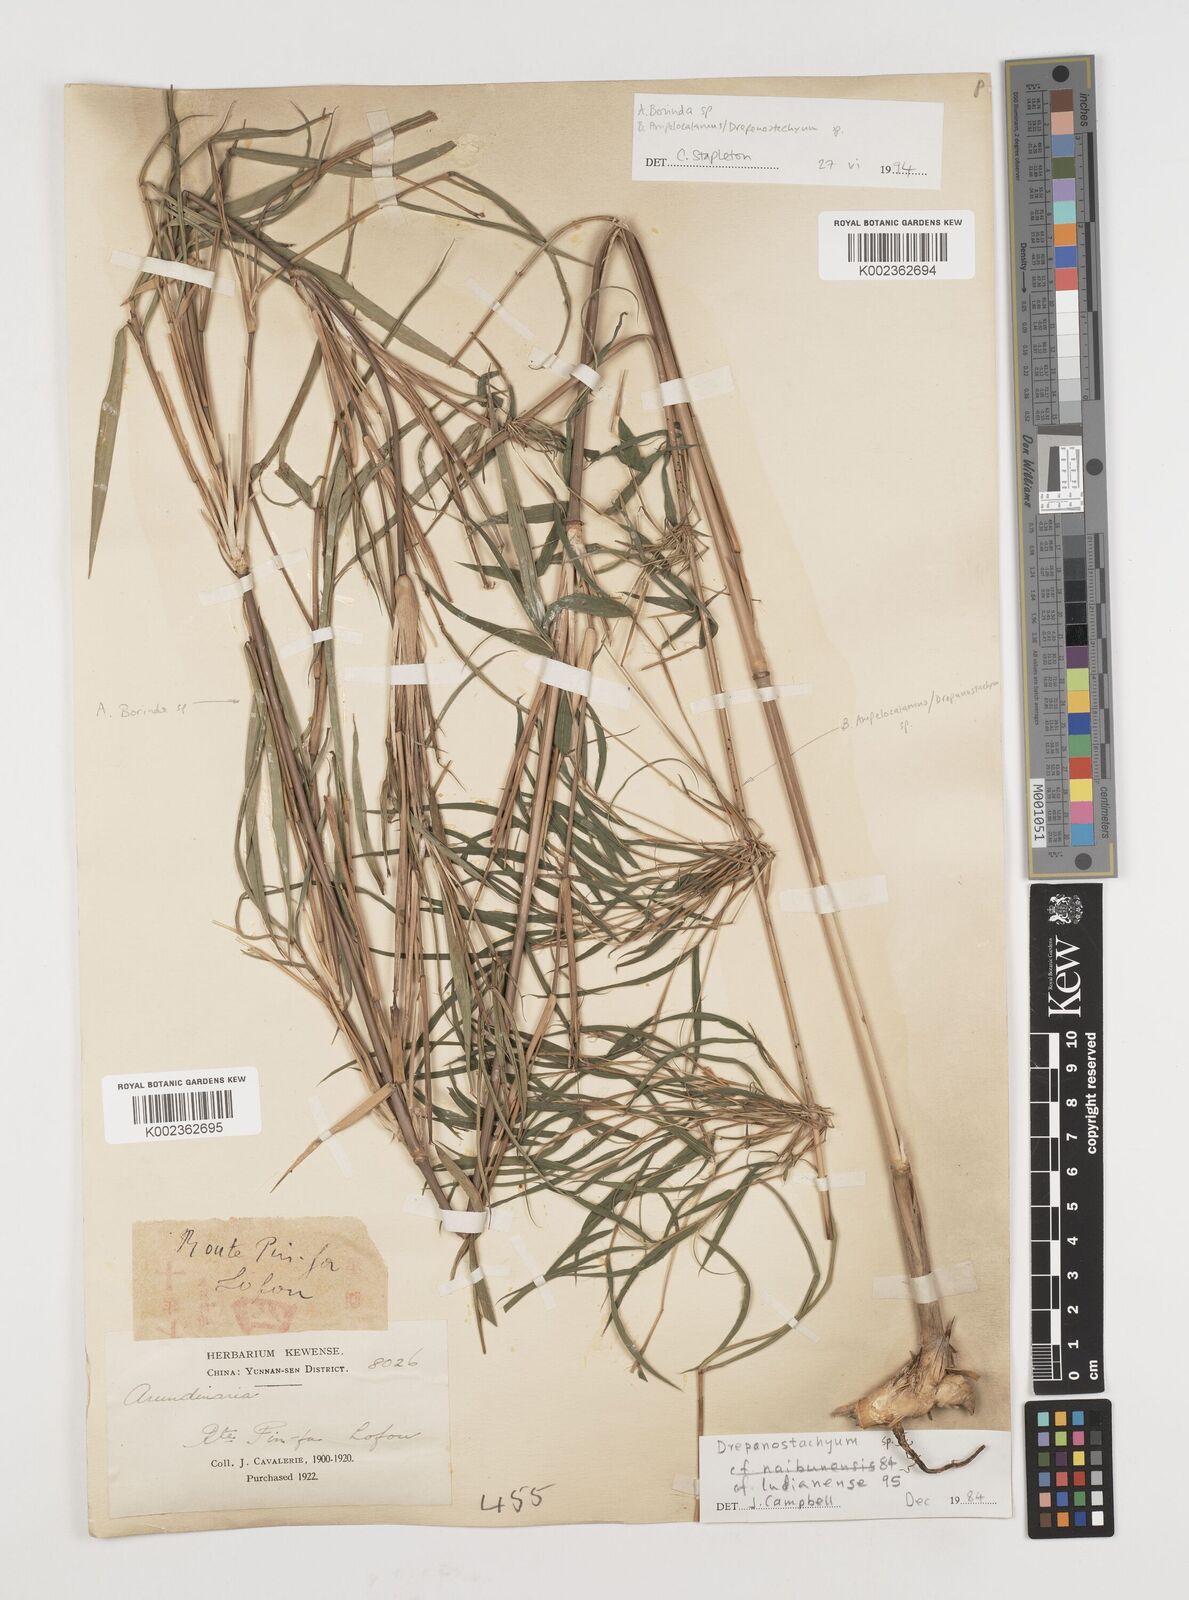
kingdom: Plantae
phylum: Tracheophyta
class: Liliopsida
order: Poales
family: Poaceae
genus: Ampelocalamus
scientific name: Ampelocalamus
